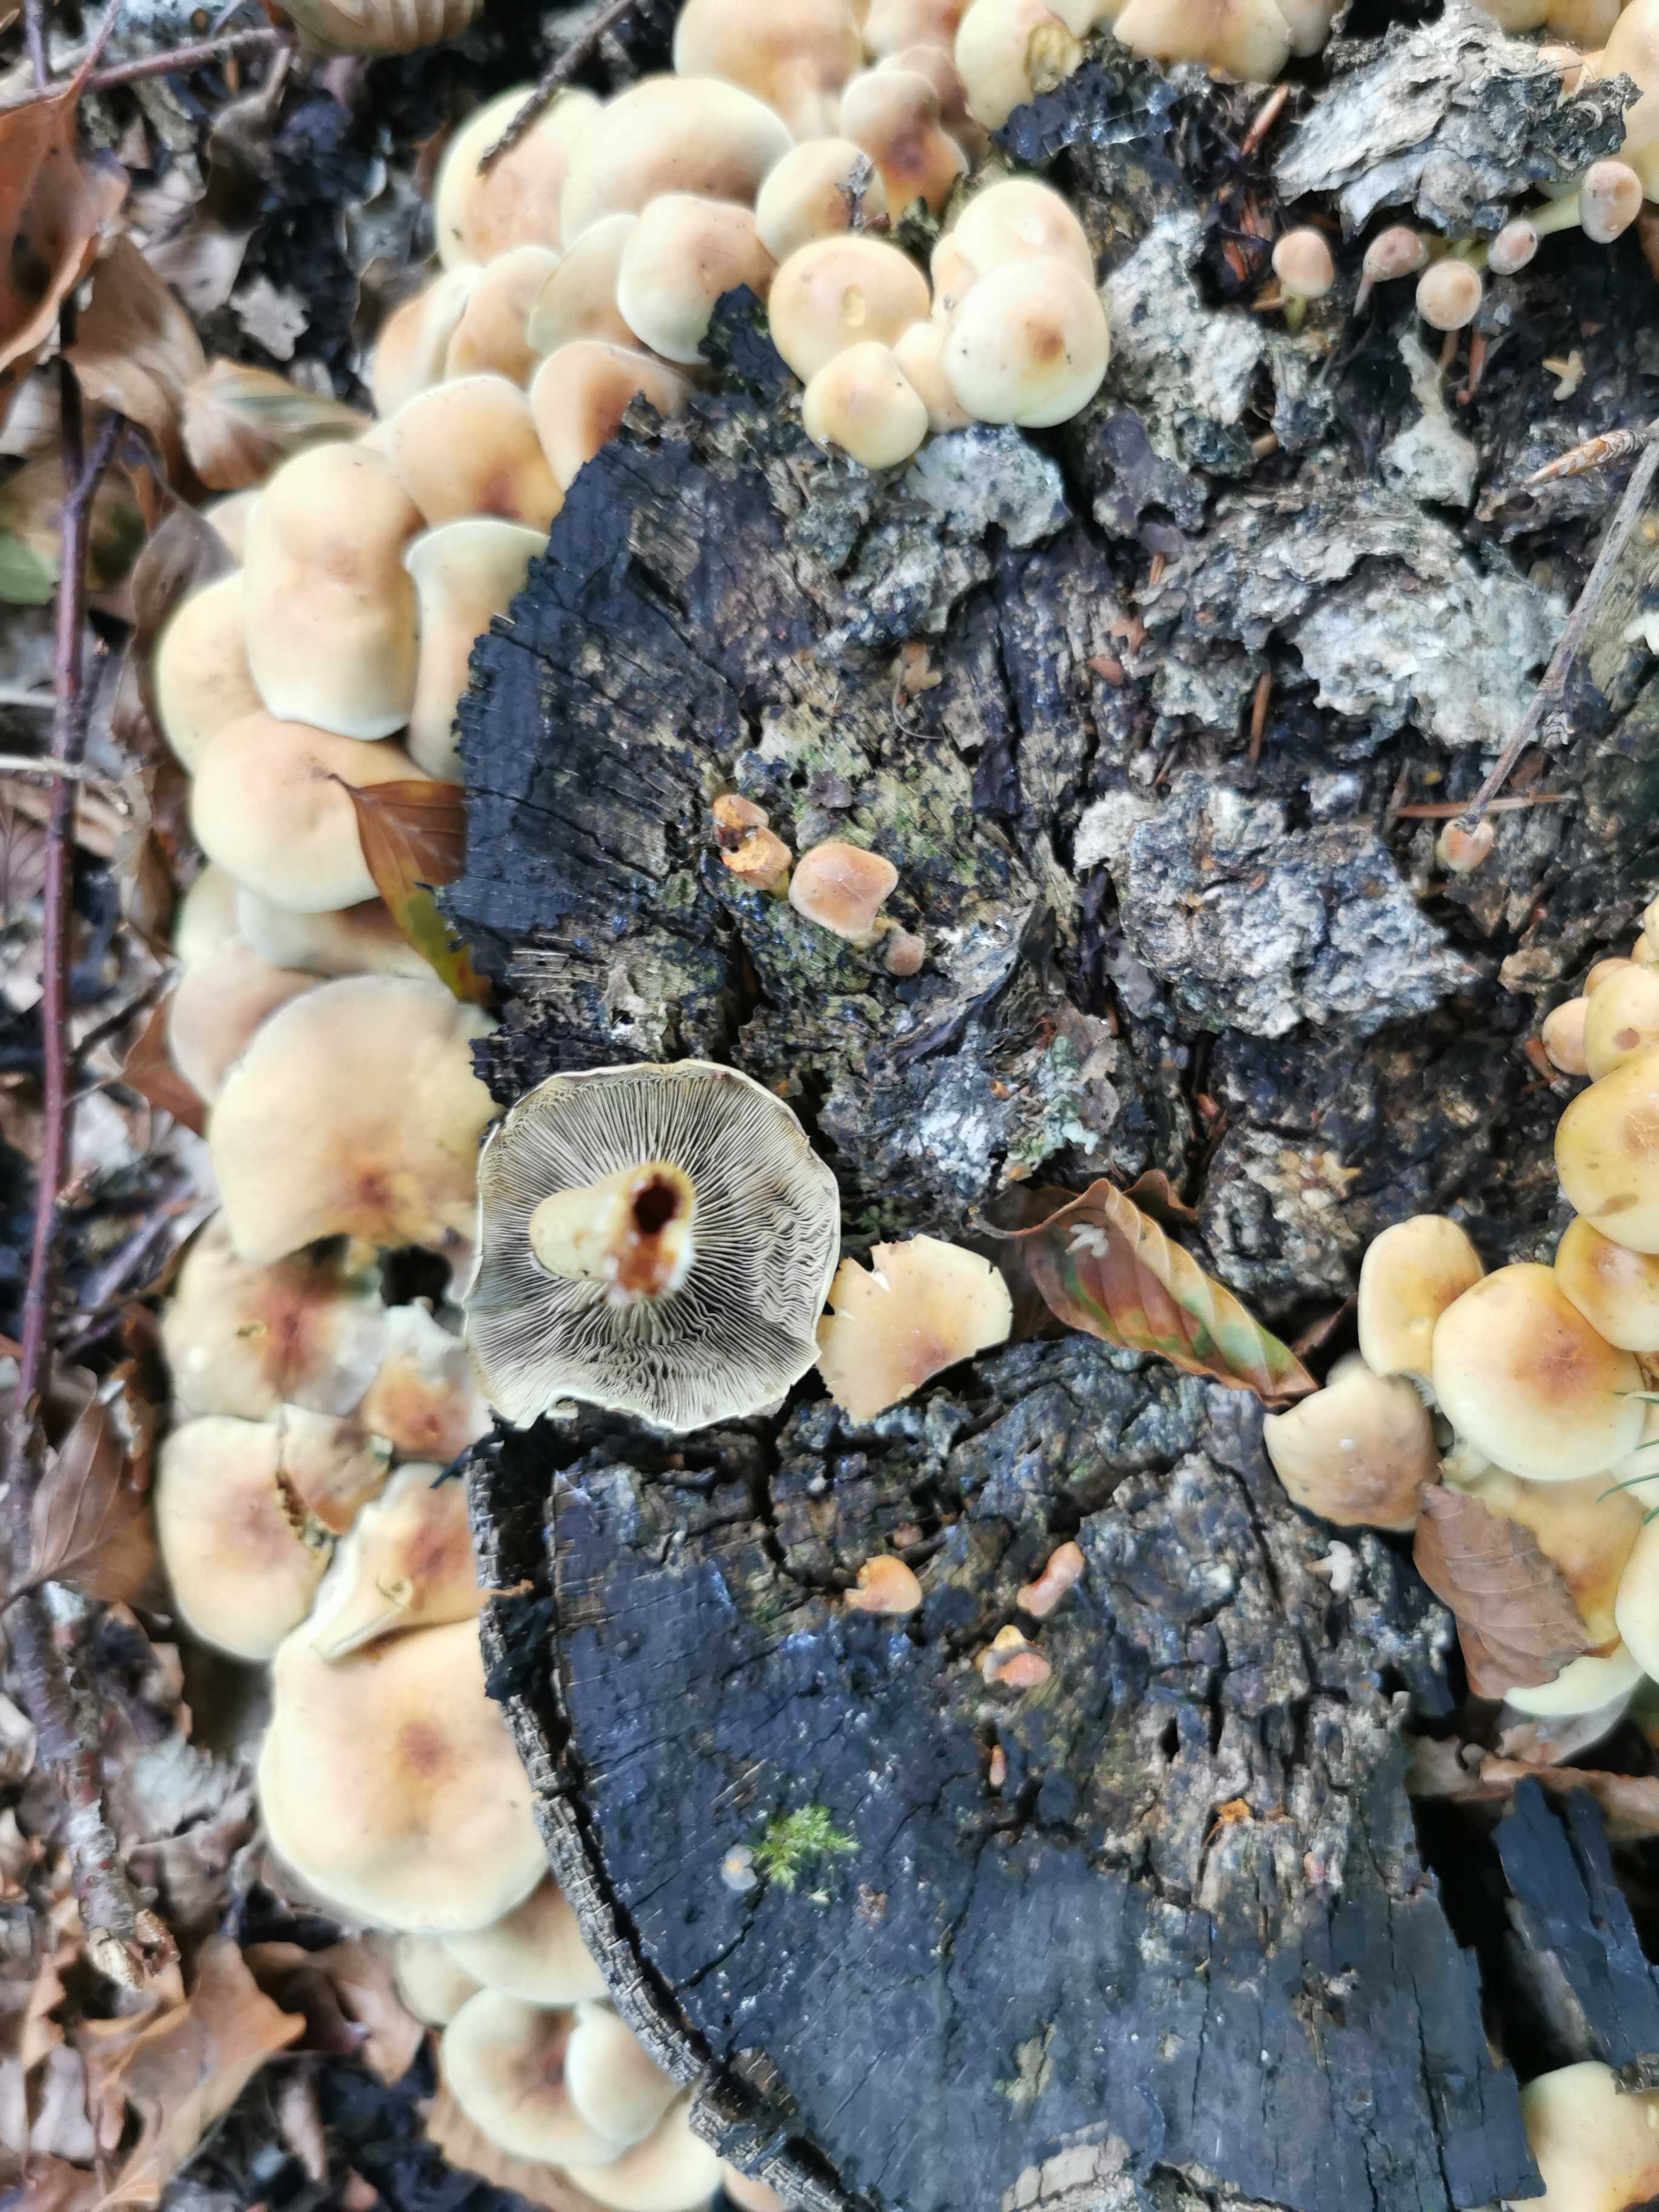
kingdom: Fungi
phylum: Basidiomycota
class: Agaricomycetes
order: Agaricales
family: Strophariaceae
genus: Hypholoma
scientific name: Hypholoma fasciculare
